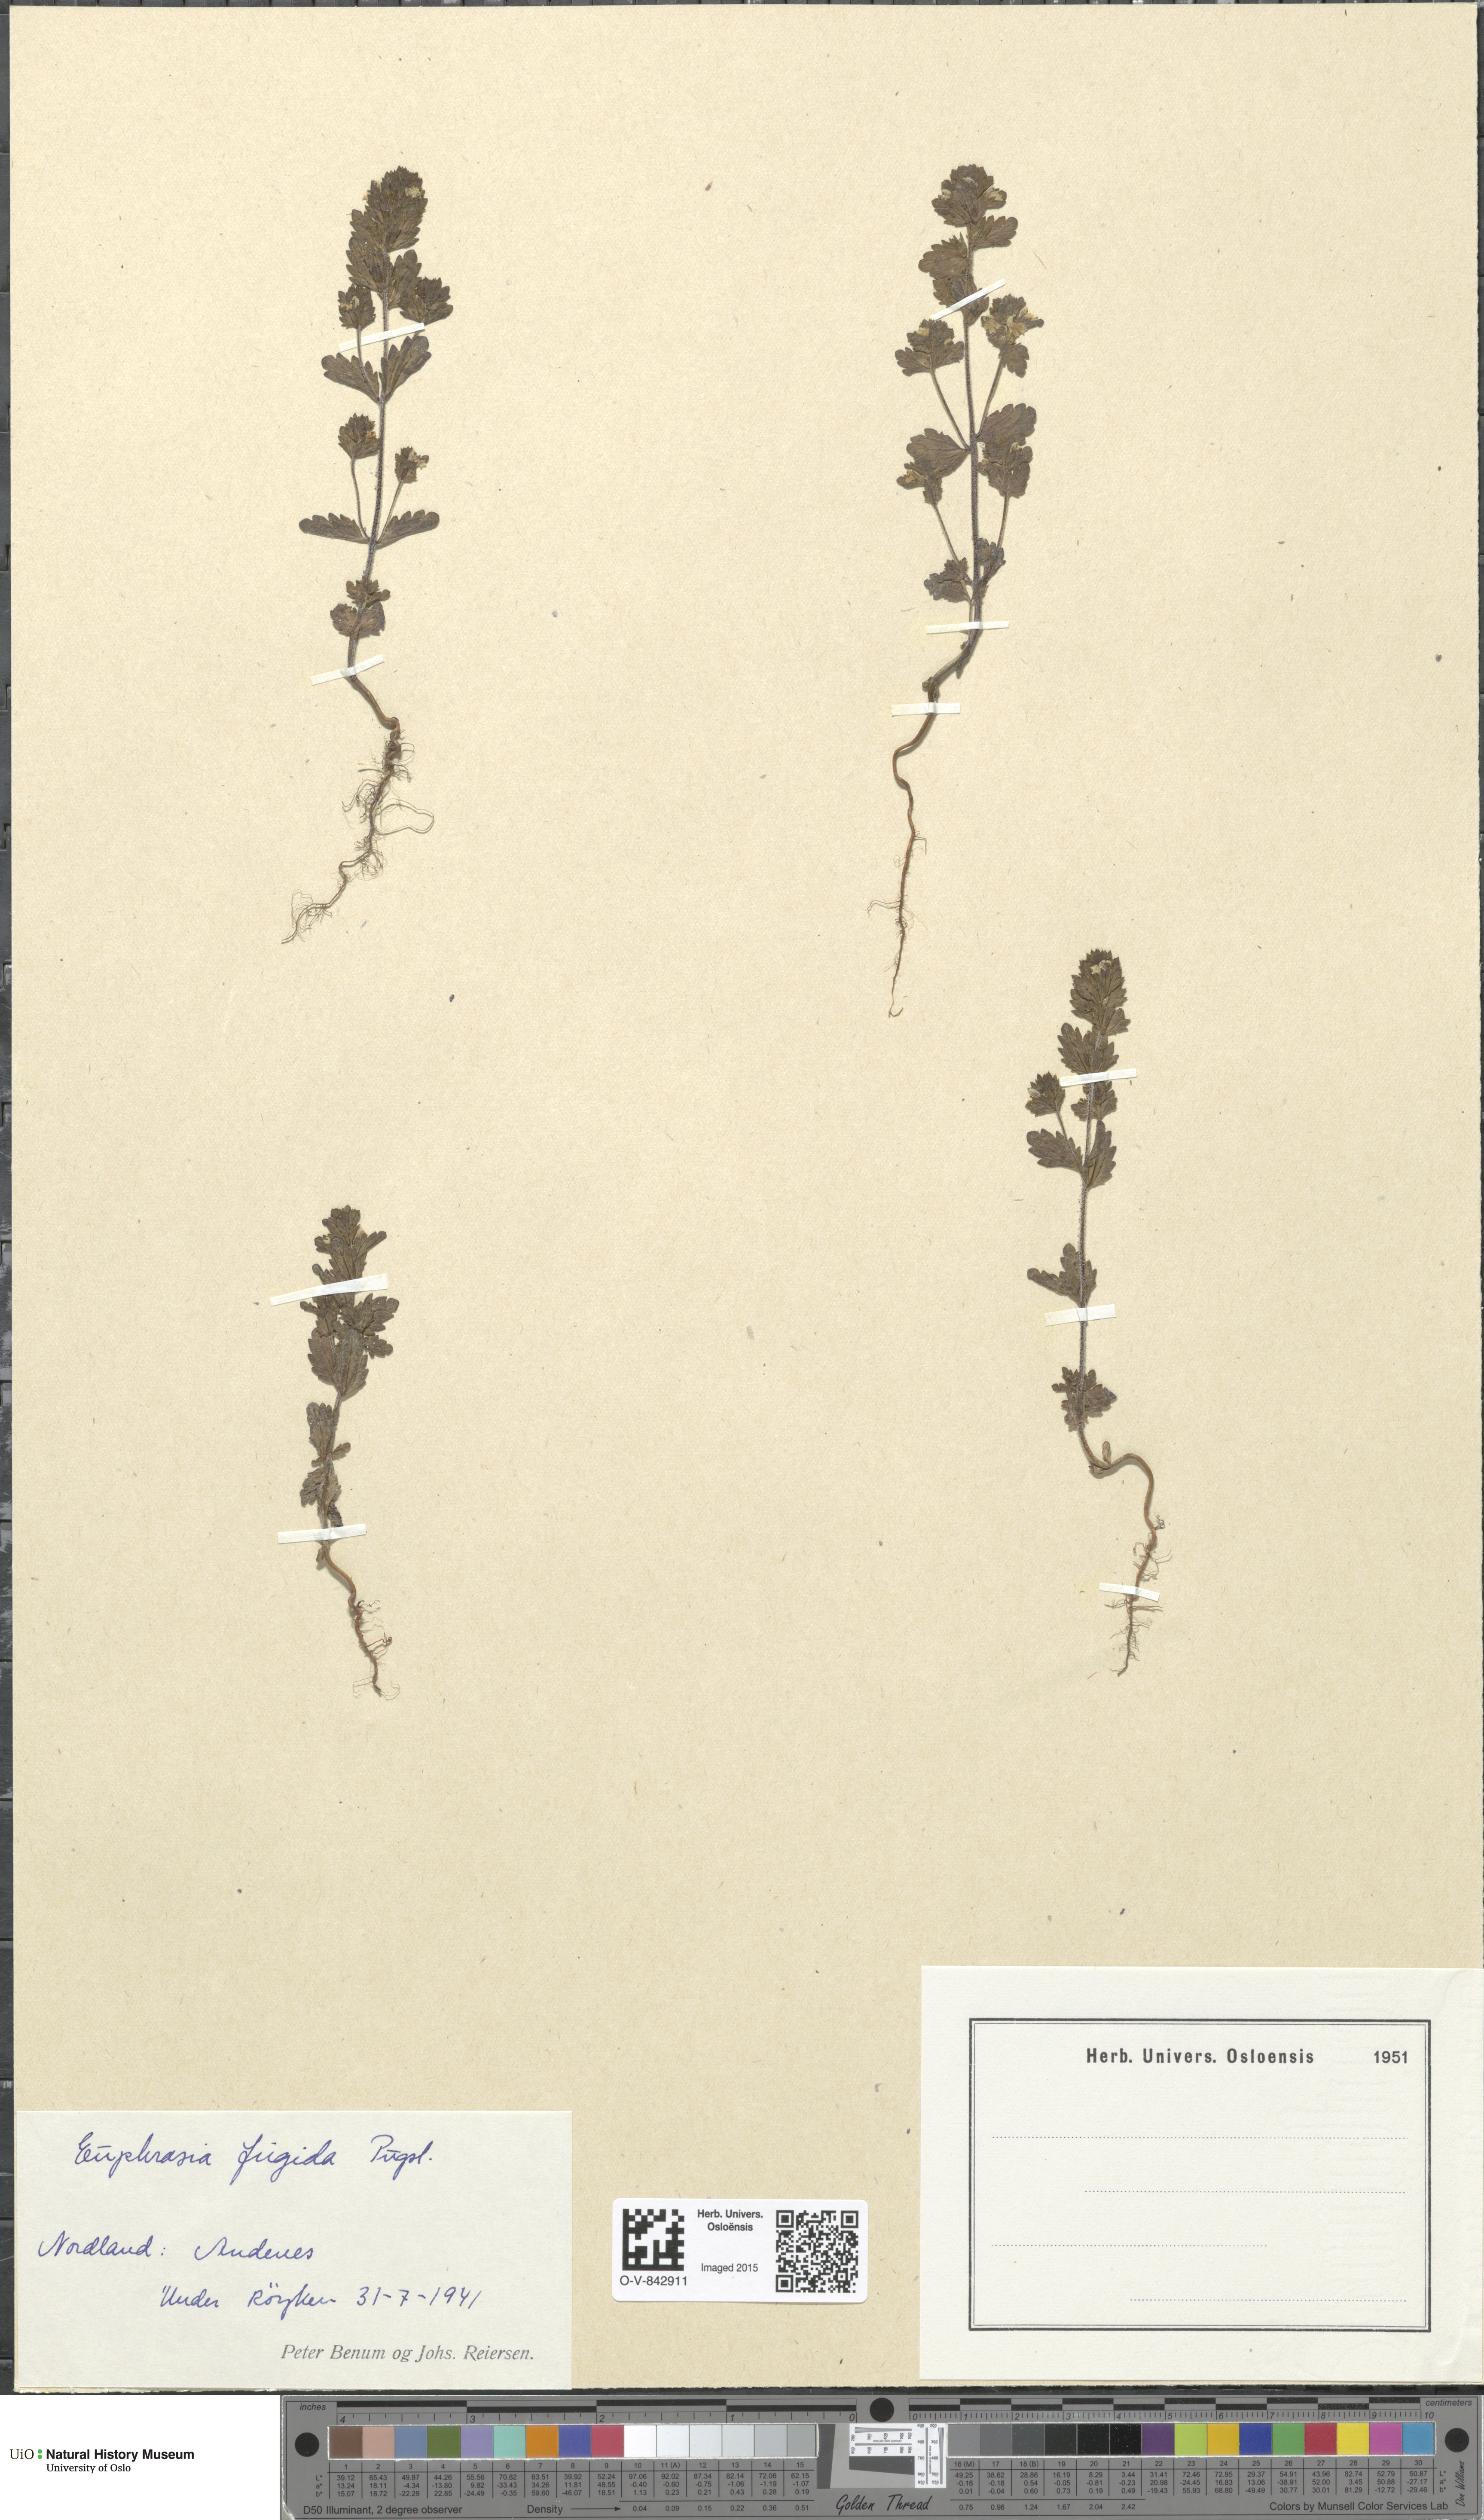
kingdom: Plantae
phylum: Tracheophyta
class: Magnoliopsida
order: Lamiales
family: Orobanchaceae
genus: Euphrasia
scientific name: Euphrasia wettsteinii
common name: Wettstein's eyebright
